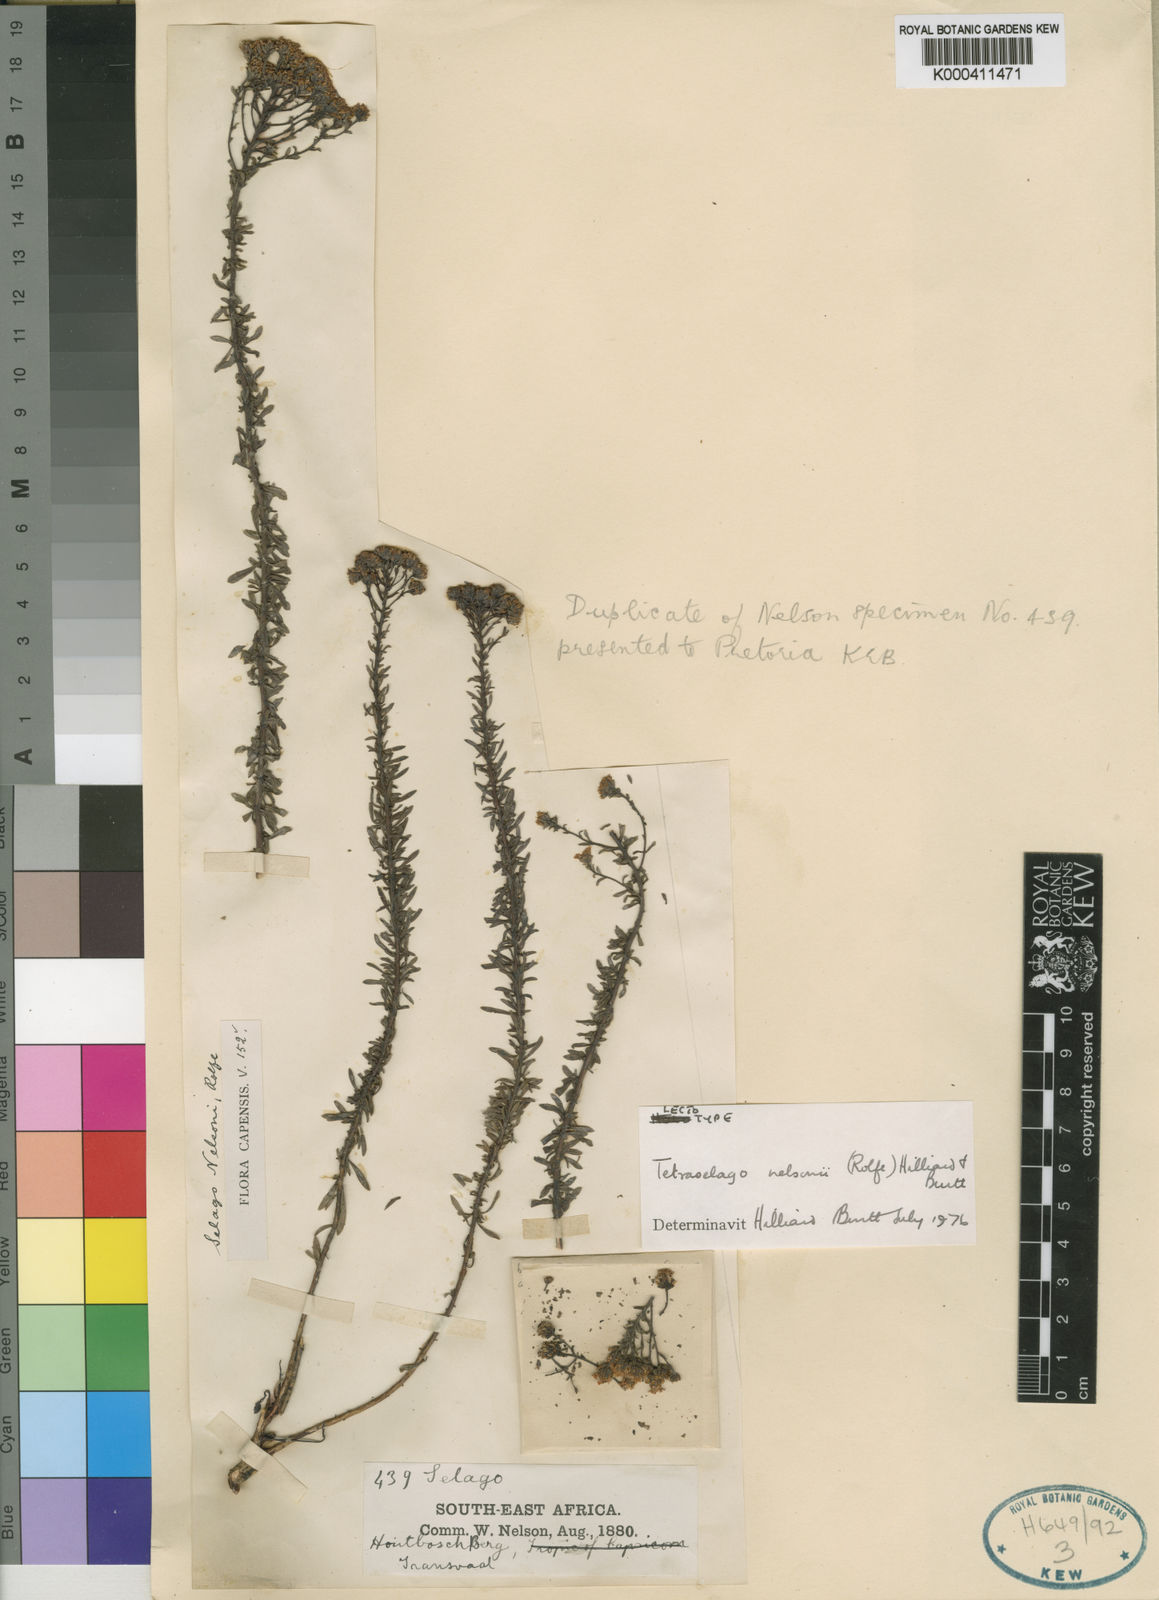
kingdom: Plantae
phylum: Tracheophyta
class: Magnoliopsida
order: Lamiales
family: Scrophulariaceae
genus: Tetraselago
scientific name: Tetraselago nelsonii
